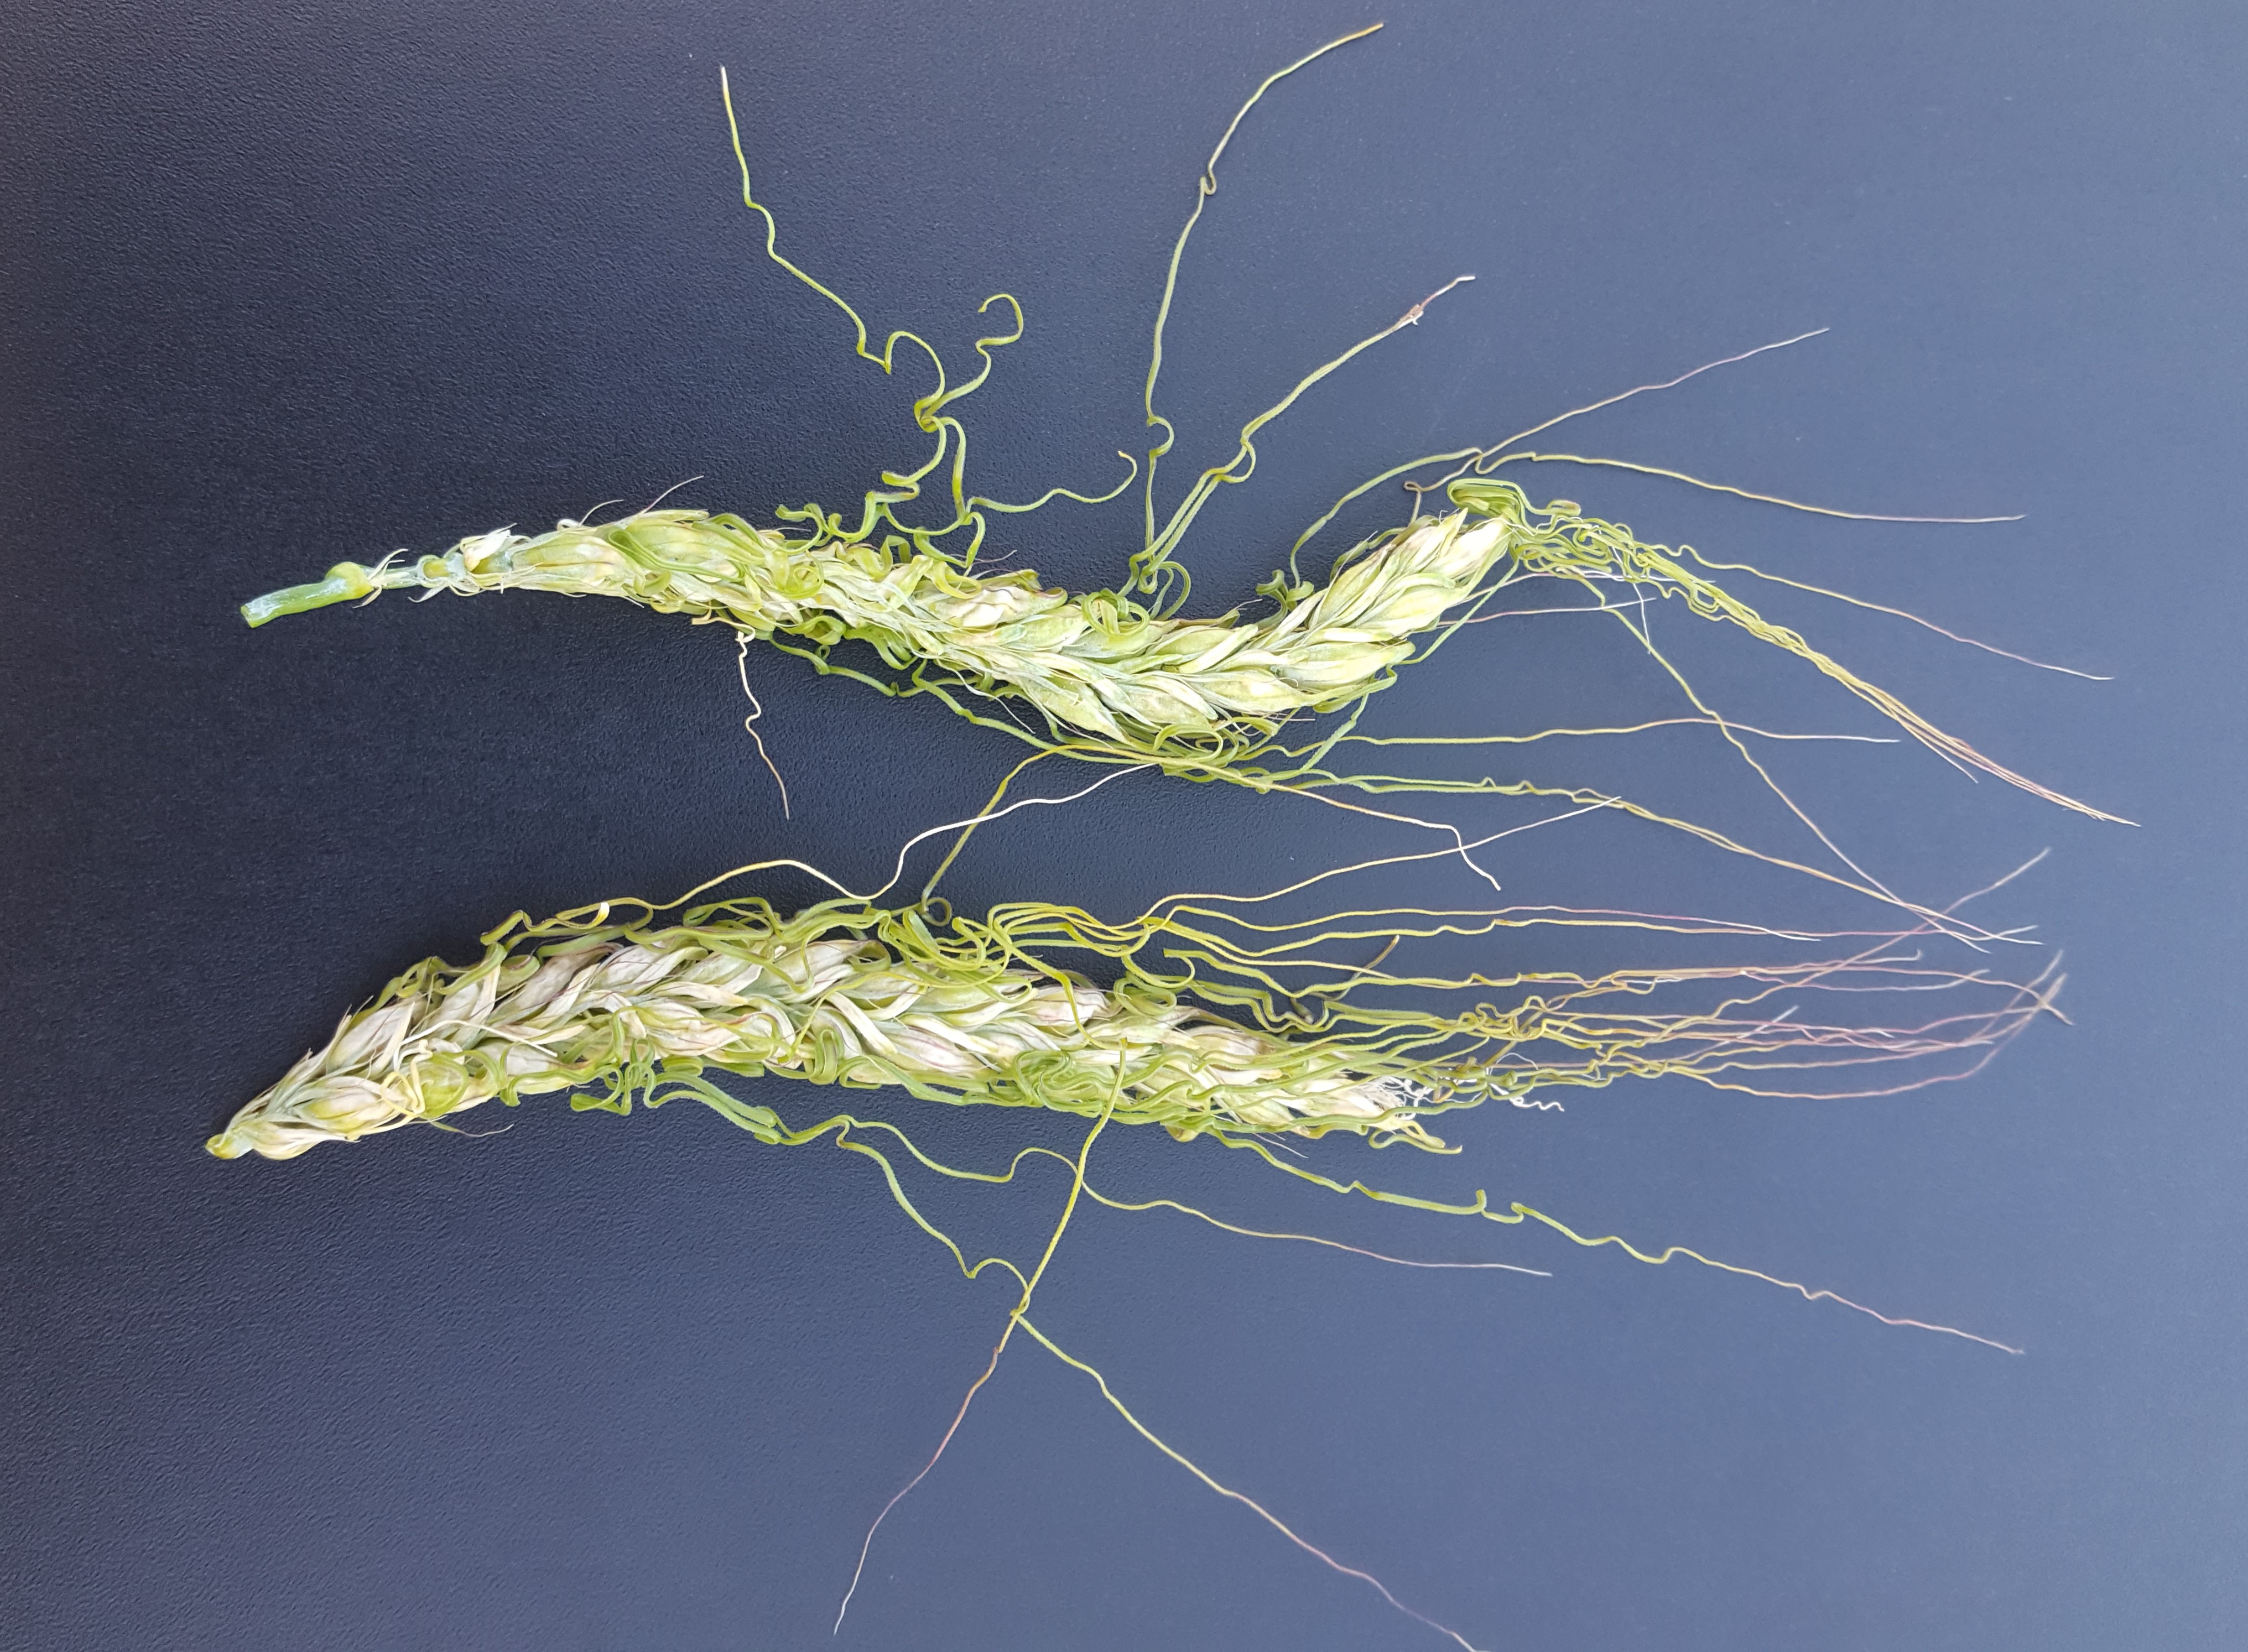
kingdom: Plantae
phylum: Tracheophyta
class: Liliopsida
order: Poales
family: Poaceae
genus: Hordeum
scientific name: Hordeum vulgare
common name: Common barley
